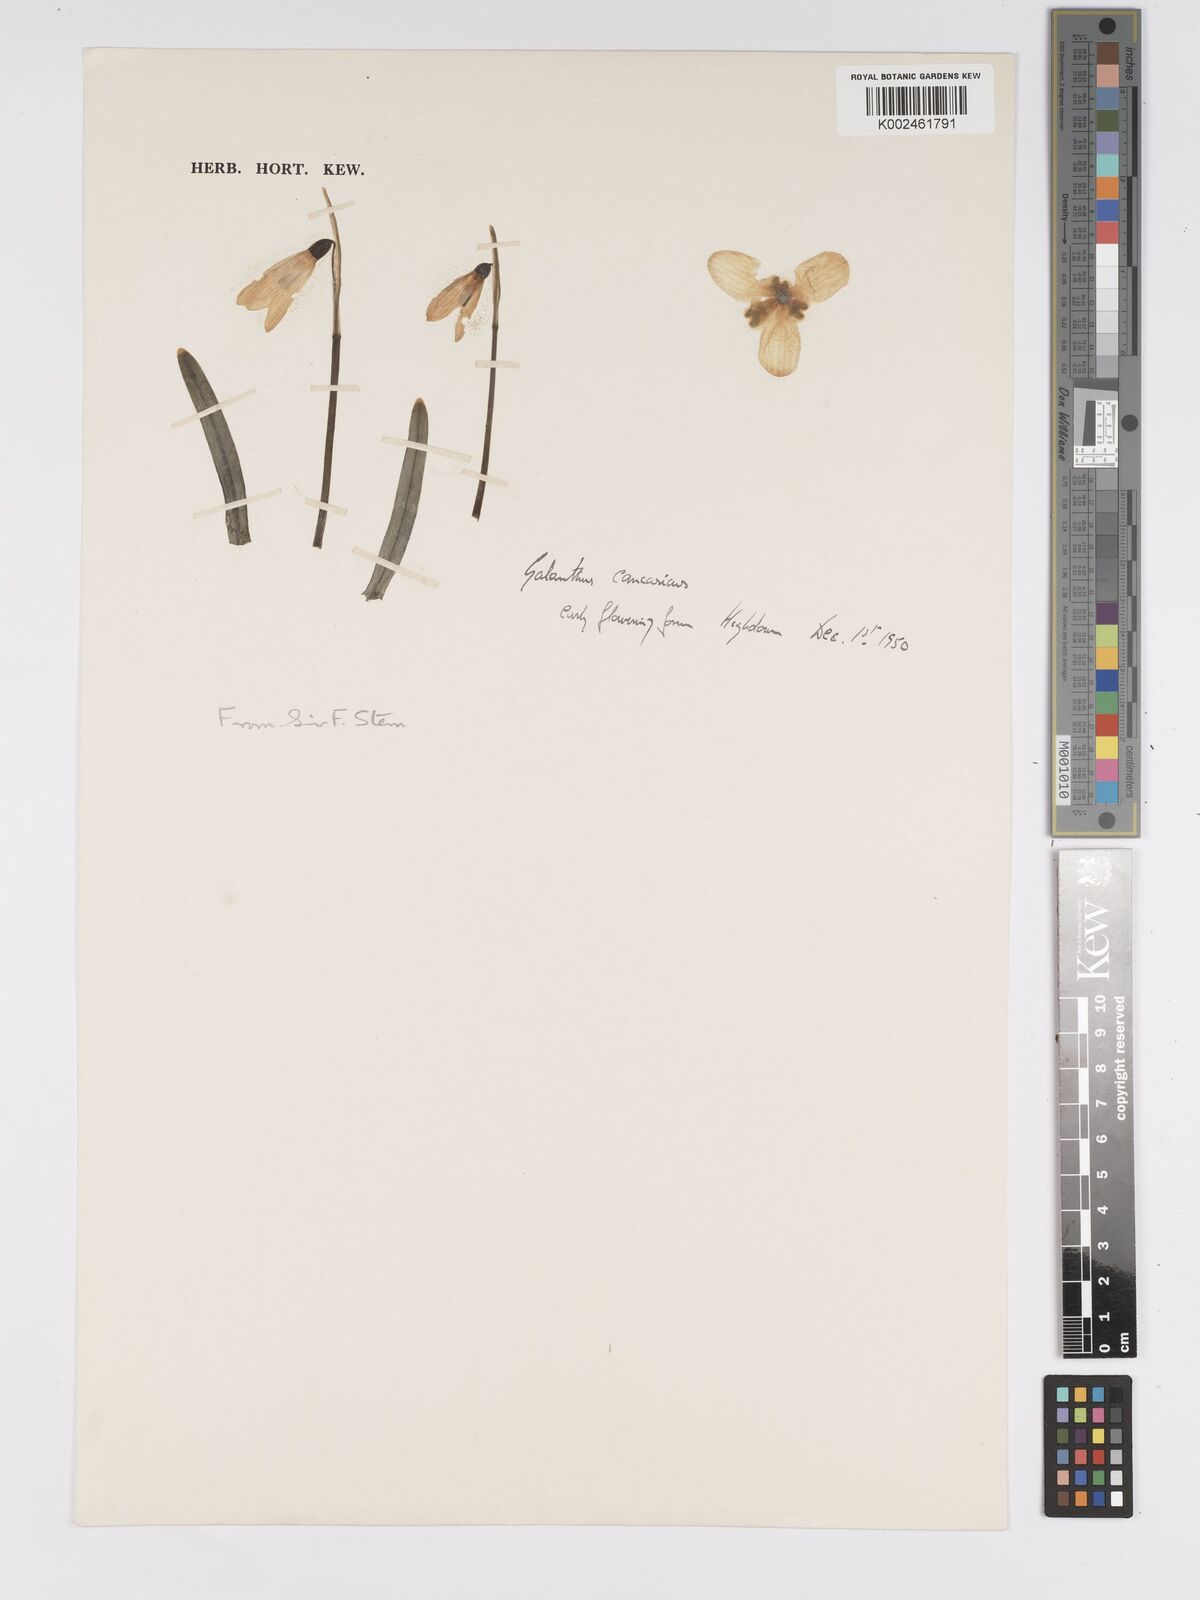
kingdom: Plantae
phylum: Tracheophyta
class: Liliopsida
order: Asparagales
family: Amaryllidaceae
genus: Galanthus
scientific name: Galanthus
